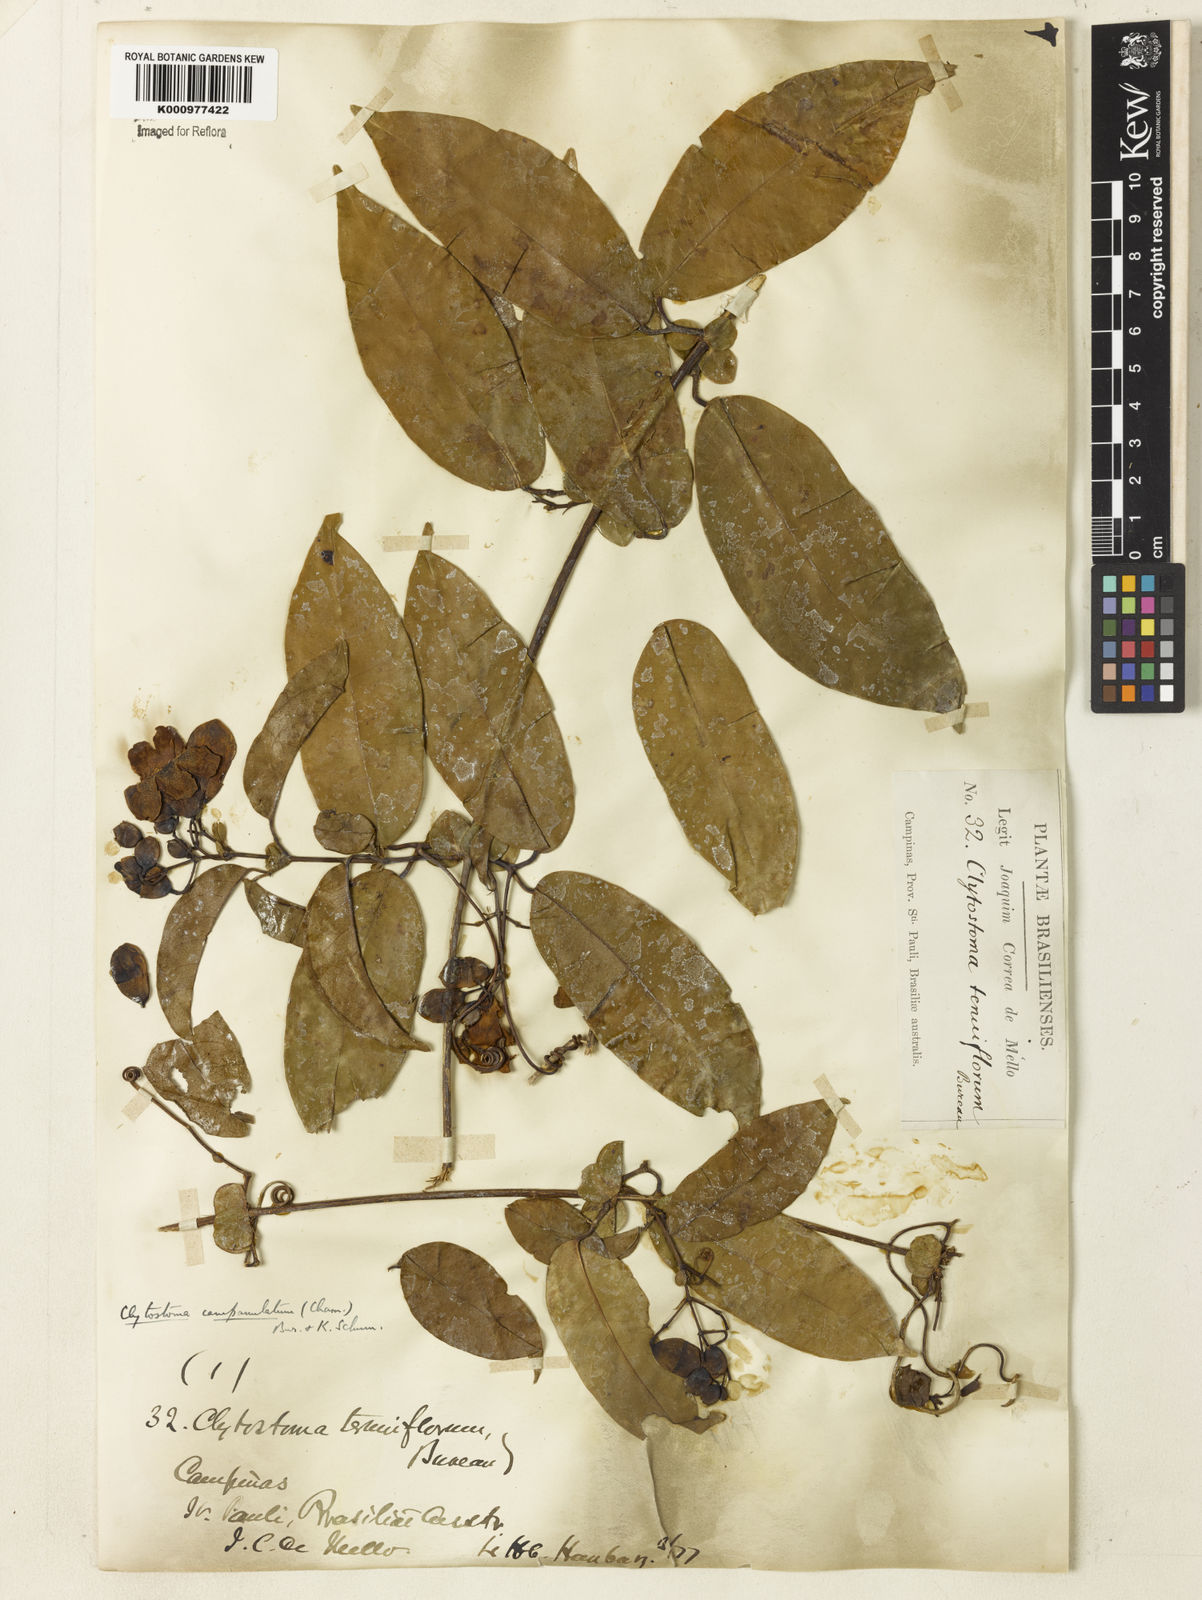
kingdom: Plantae
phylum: Tracheophyta
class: Magnoliopsida
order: Lamiales
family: Bignoniaceae
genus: Bignonia
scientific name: Bignonia campanulata
